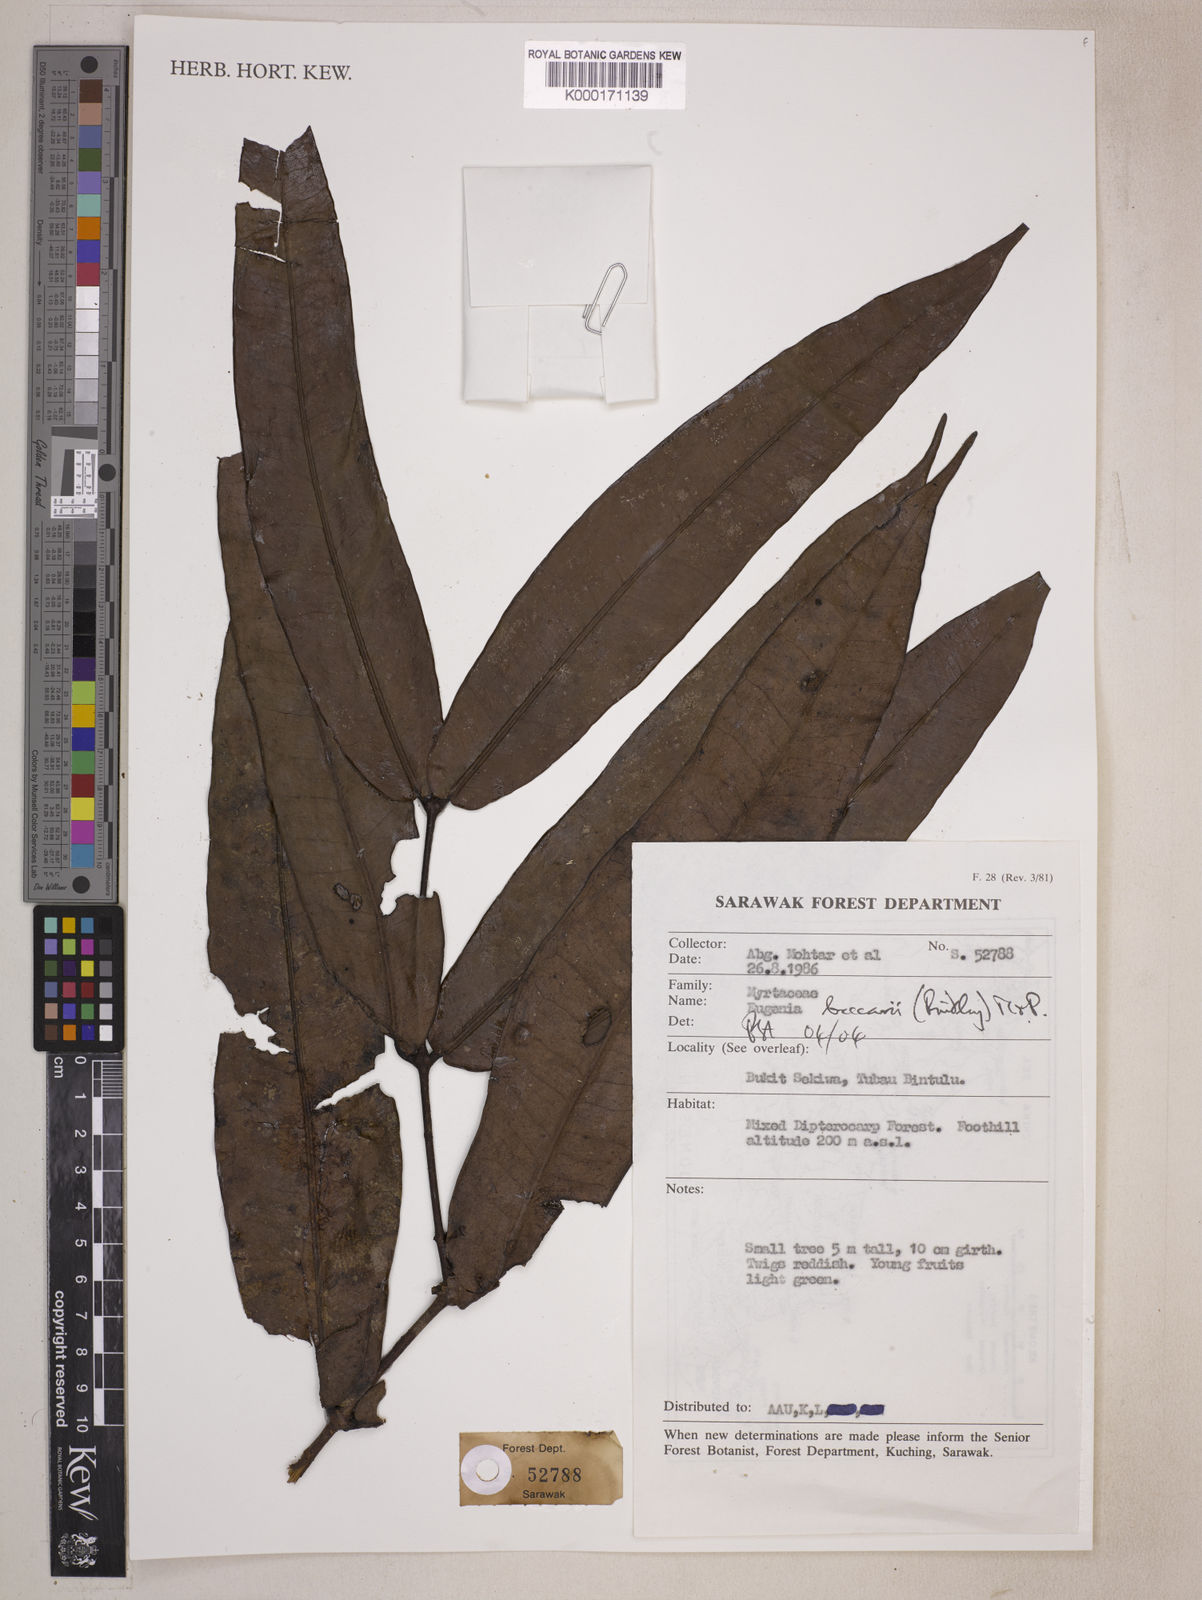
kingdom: Plantae
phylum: Tracheophyta
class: Magnoliopsida
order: Myrtales
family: Myrtaceae
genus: Syzygium
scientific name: Syzygium beccarii
